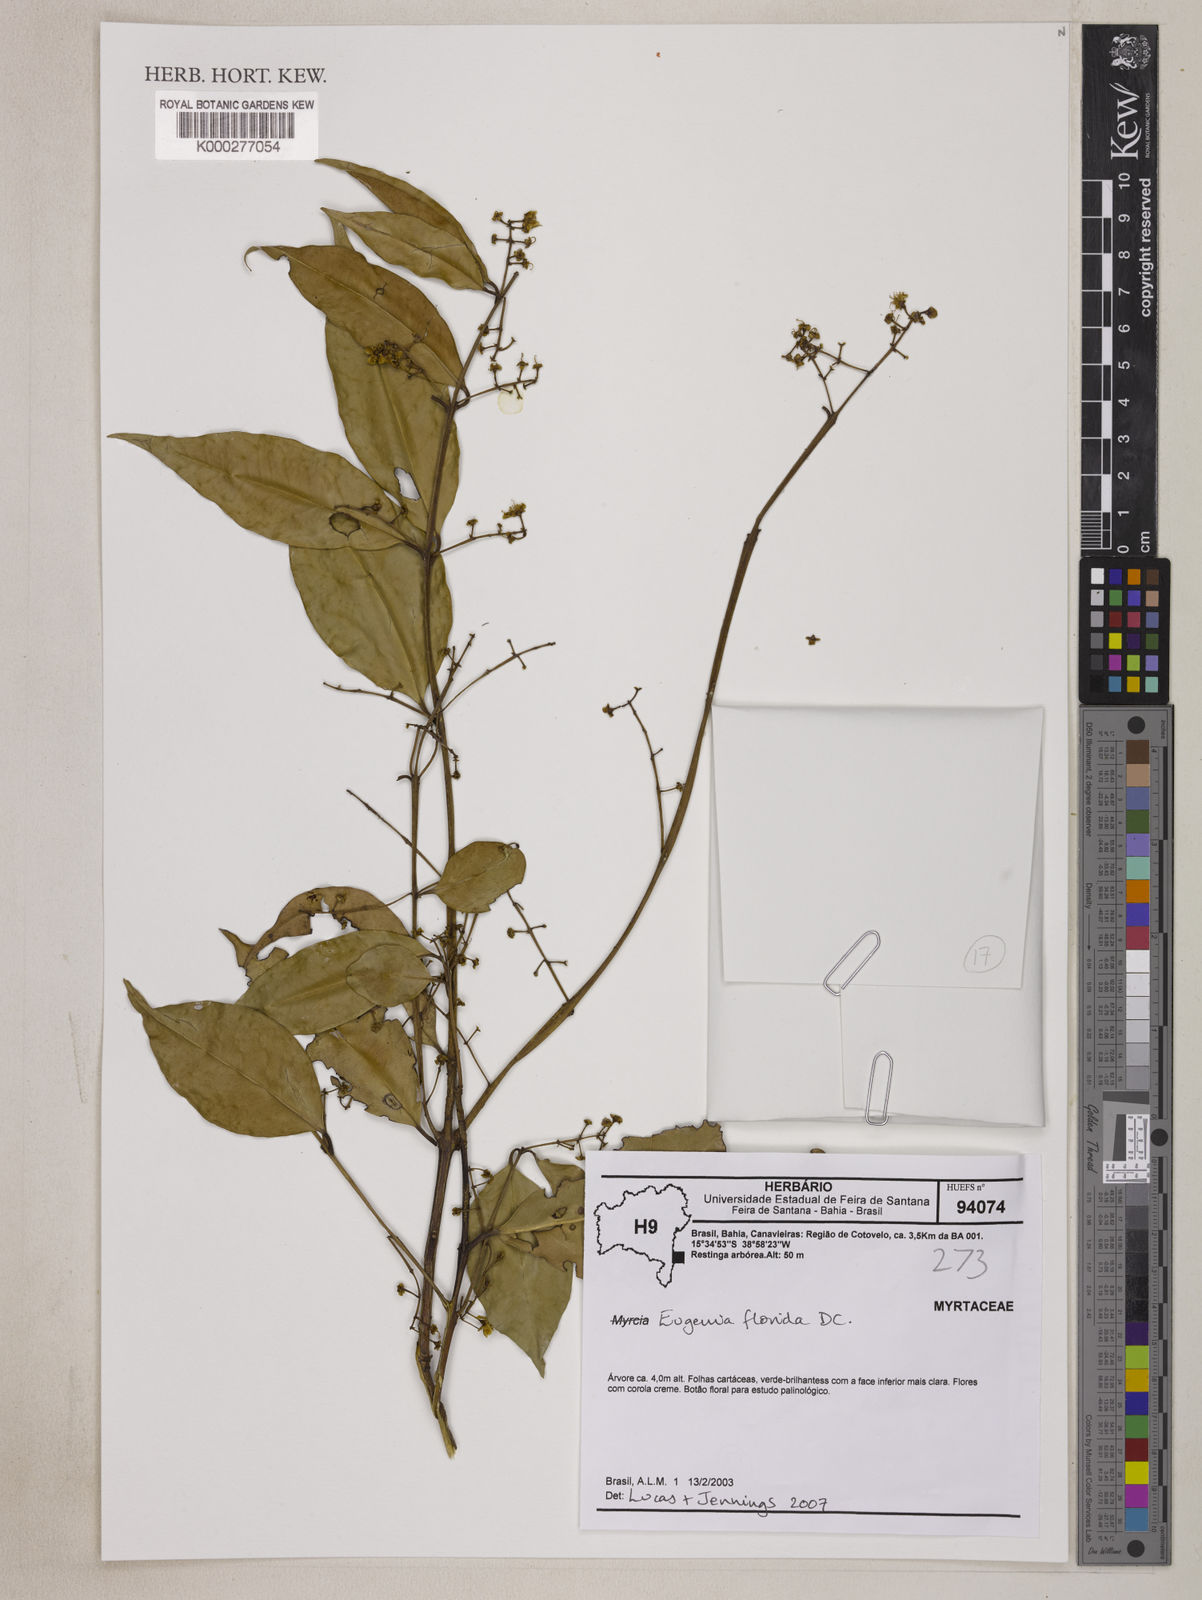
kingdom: Plantae
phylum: Tracheophyta
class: Magnoliopsida
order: Myrtales
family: Myrtaceae
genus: Eugenia
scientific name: Eugenia florida
